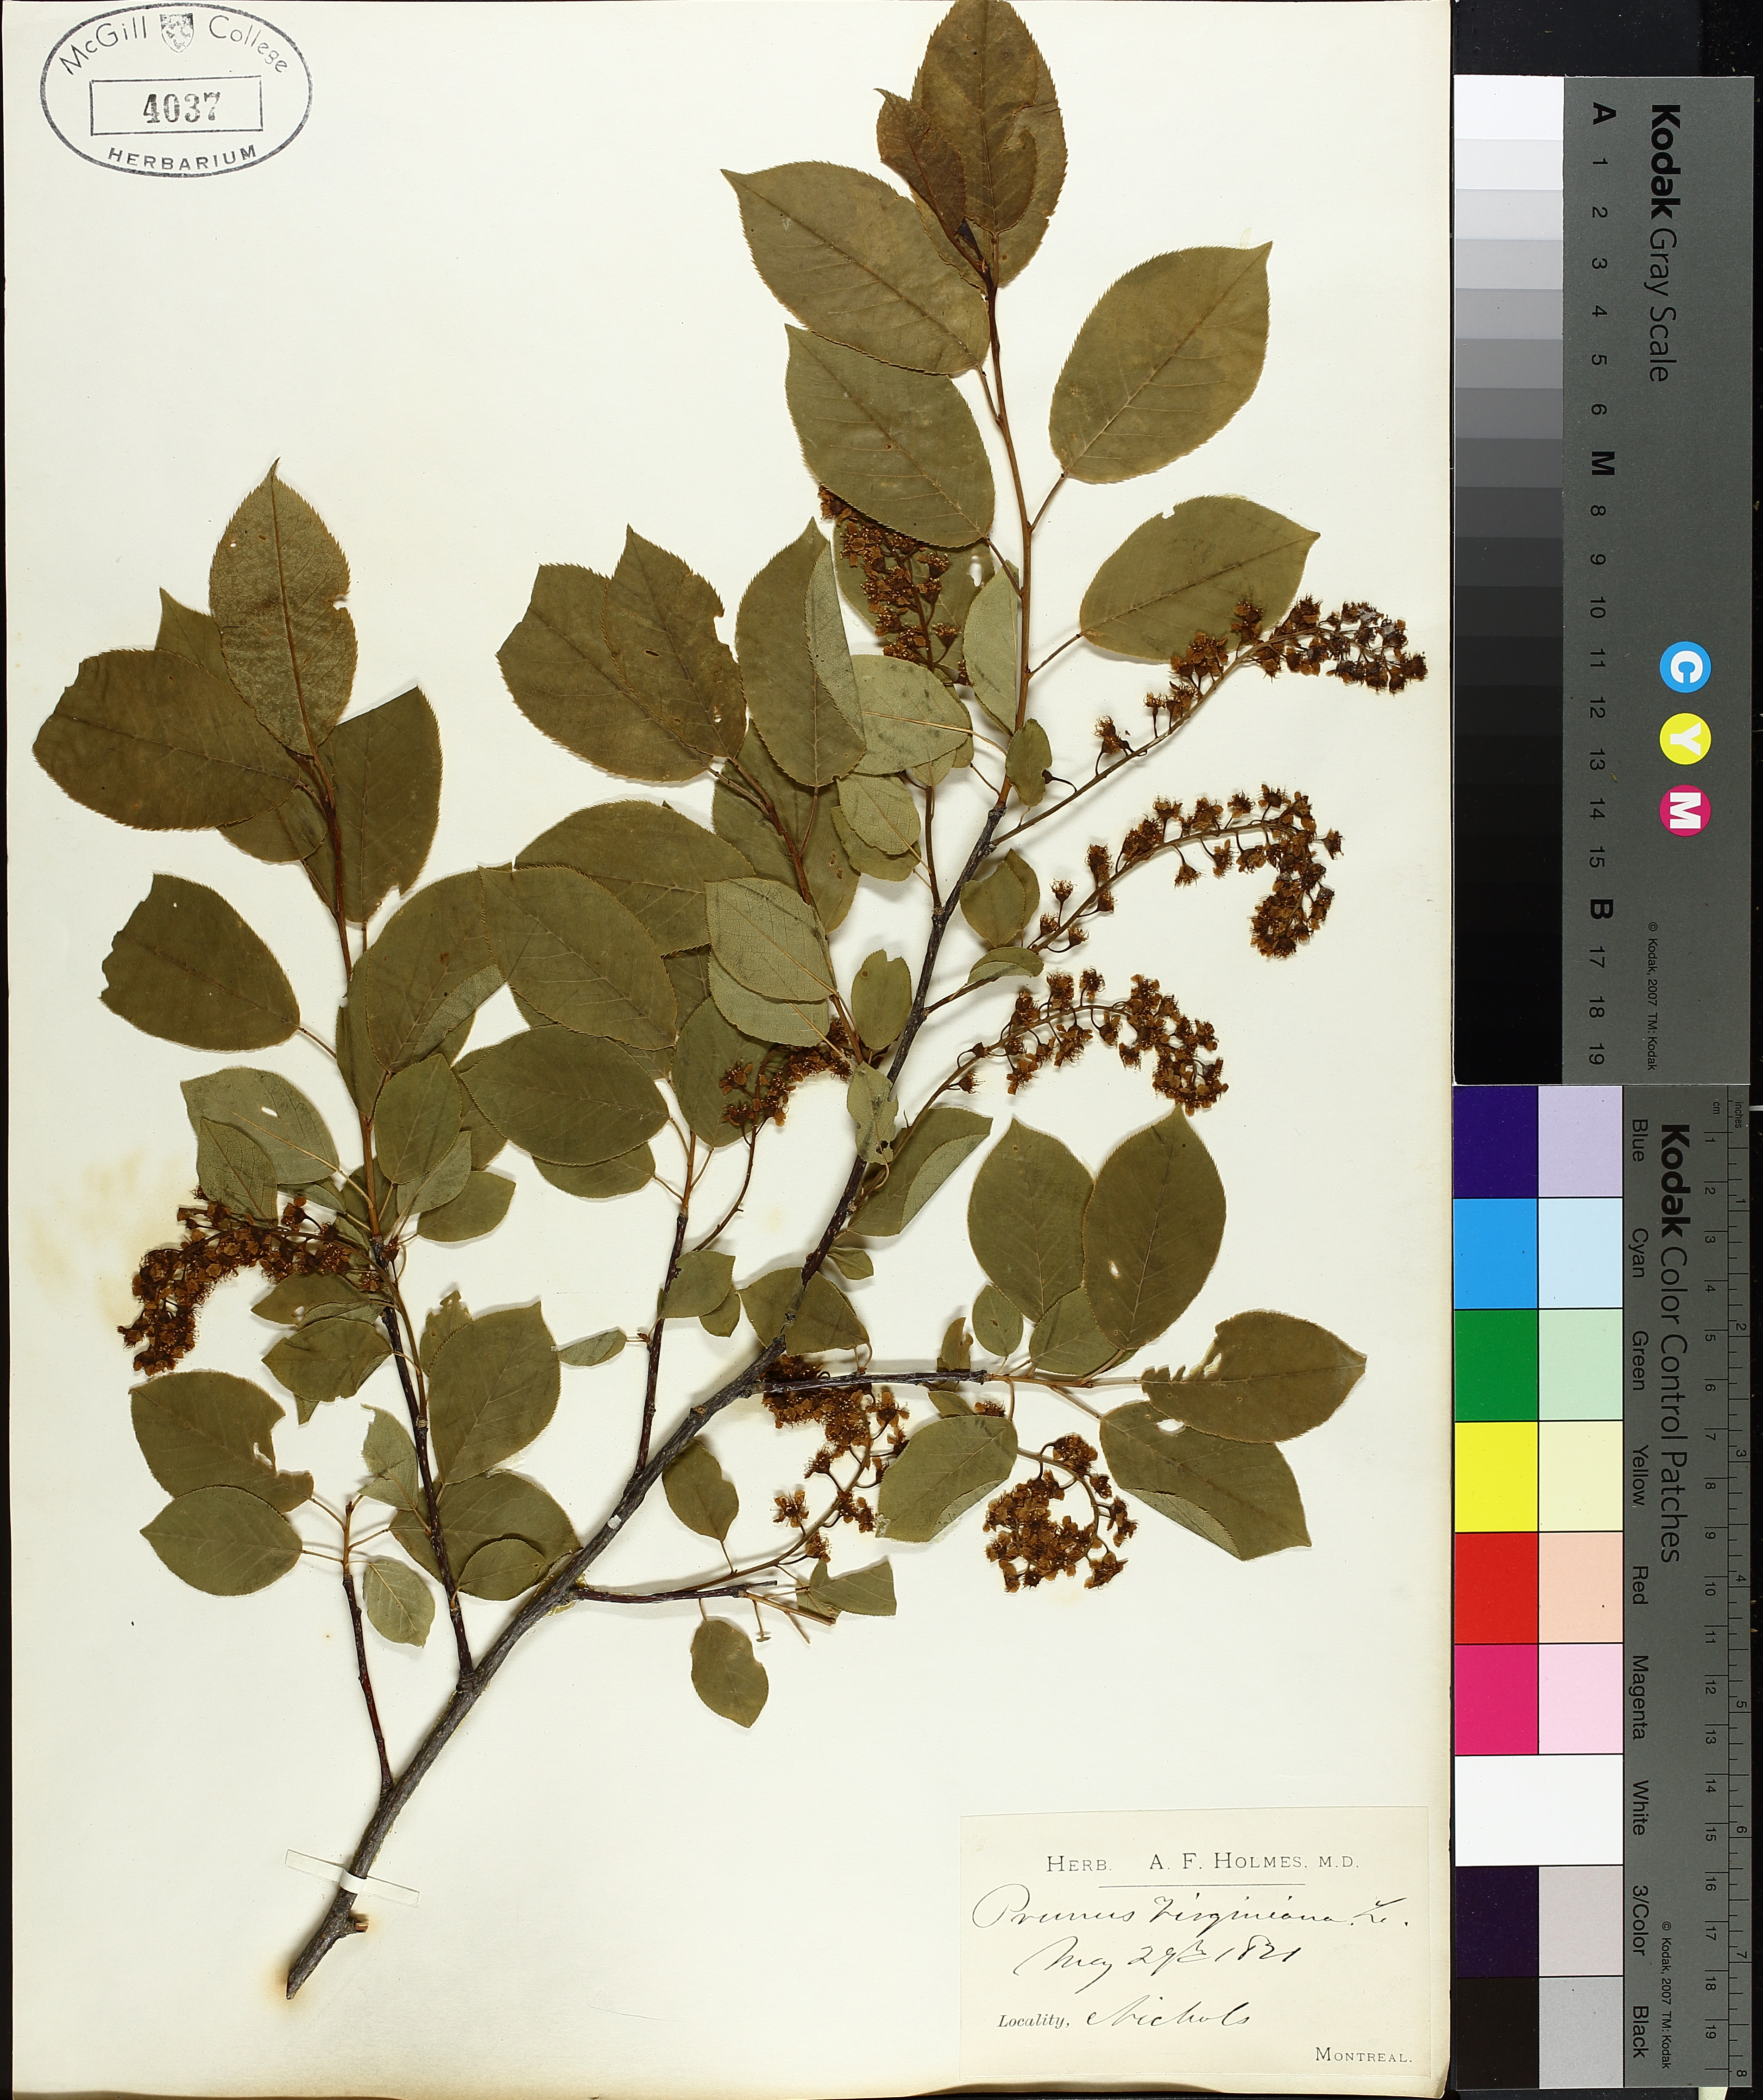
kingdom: Plantae
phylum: Tracheophyta
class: Magnoliopsida
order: Rosales
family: Rosaceae
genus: Prunus
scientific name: Prunus virginiana
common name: Chokecherry
